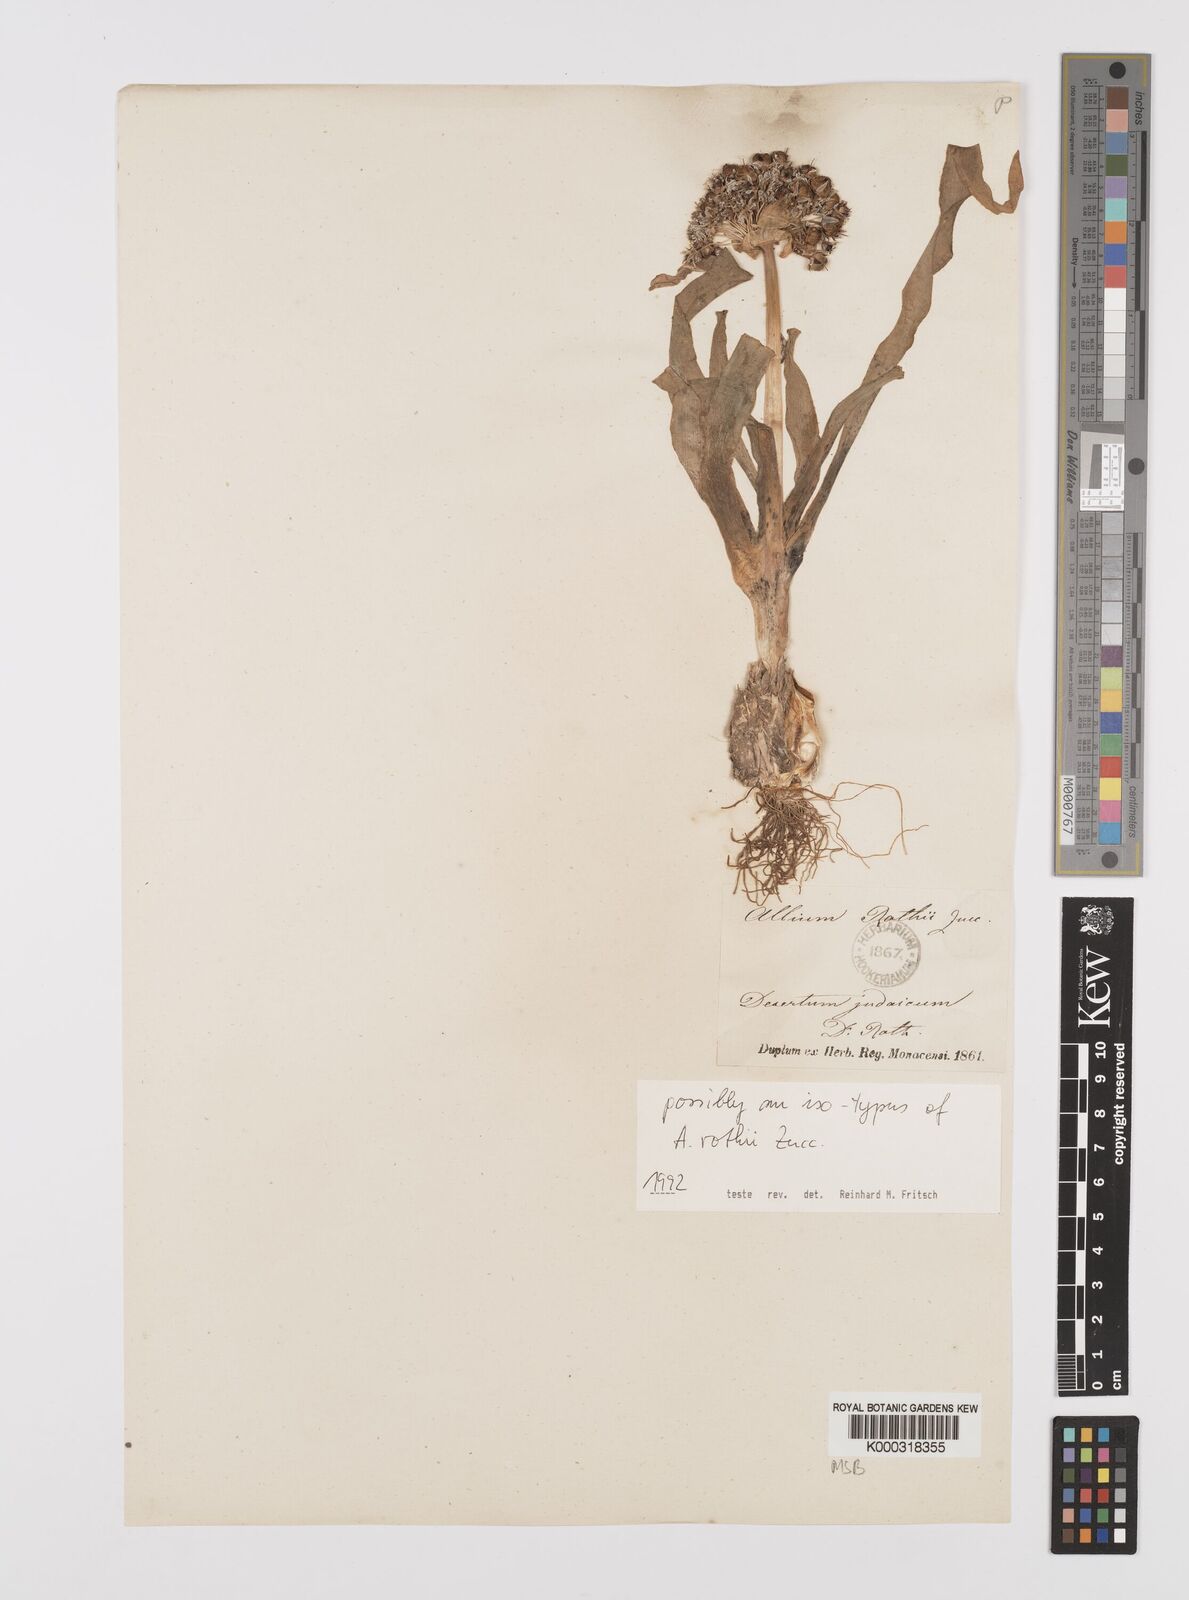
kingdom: Plantae
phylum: Tracheophyta
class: Liliopsida
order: Asparagales
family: Amaryllidaceae
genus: Allium
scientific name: Allium rothii
